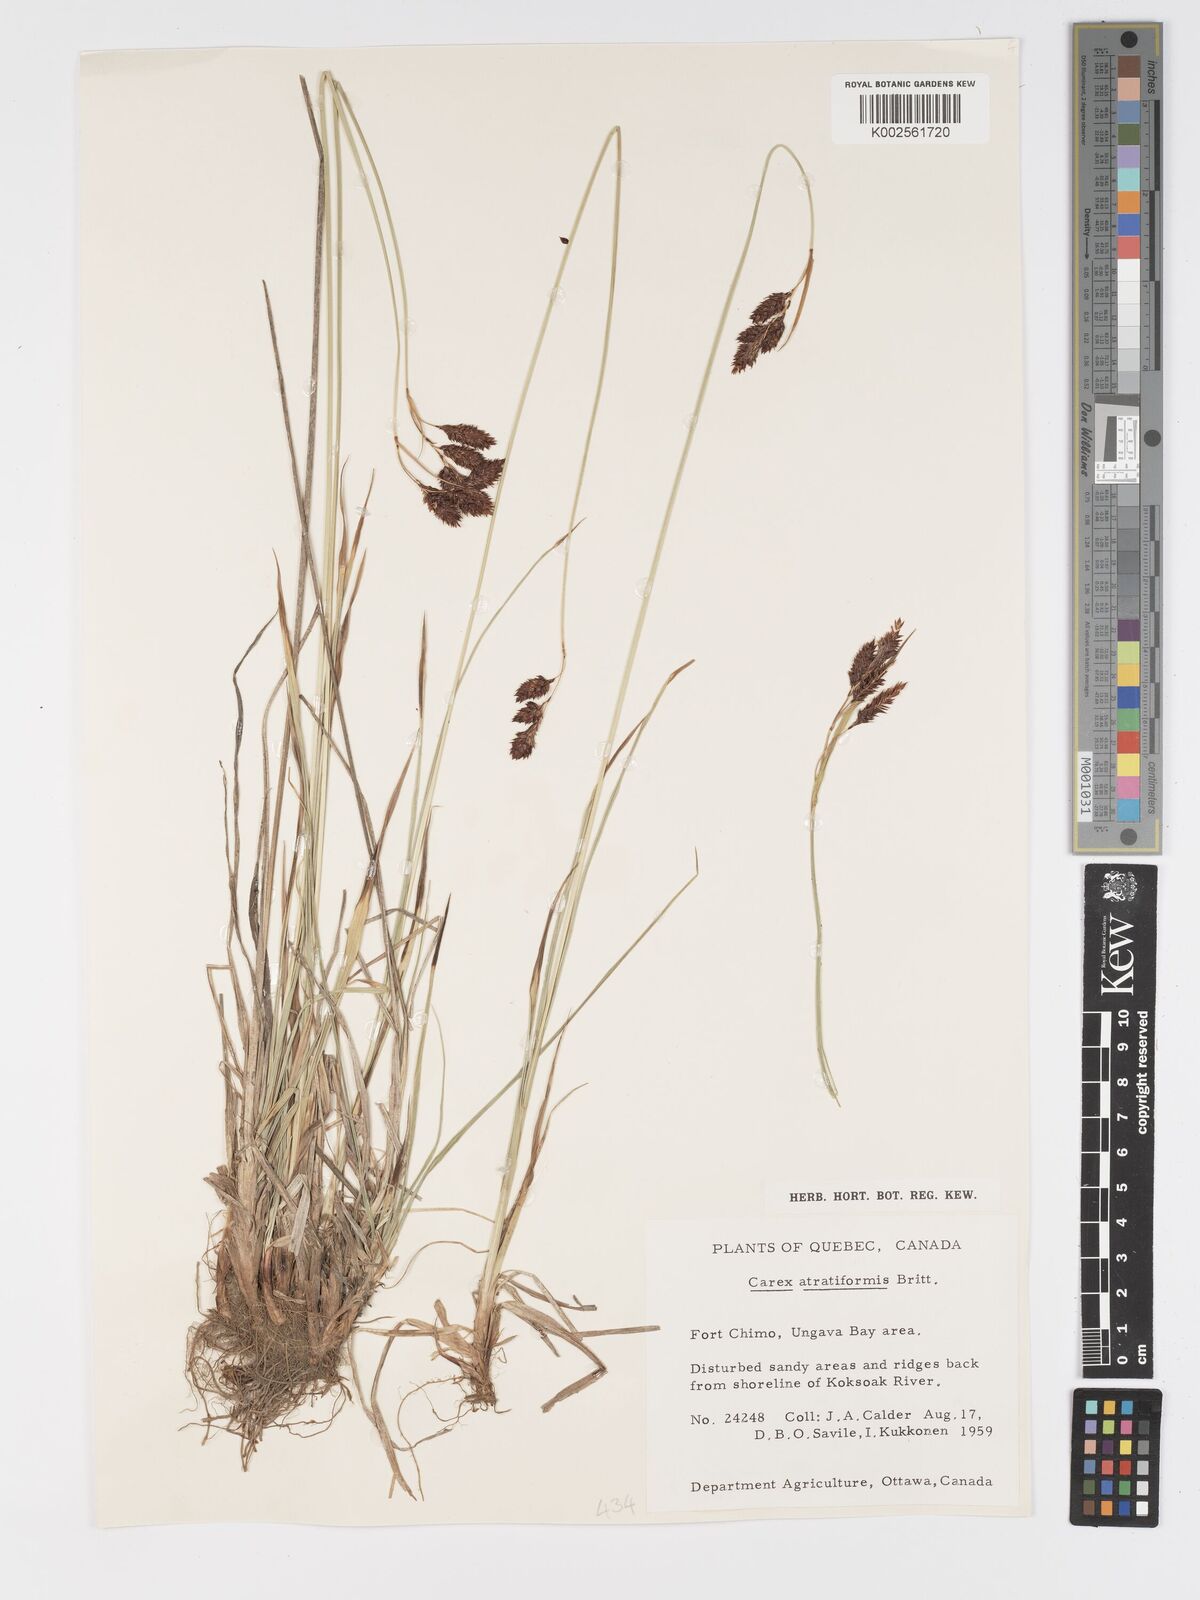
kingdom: Plantae
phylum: Tracheophyta
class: Liliopsida
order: Poales
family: Cyperaceae
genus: Carex
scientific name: Carex atratiformis
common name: Black sedge
